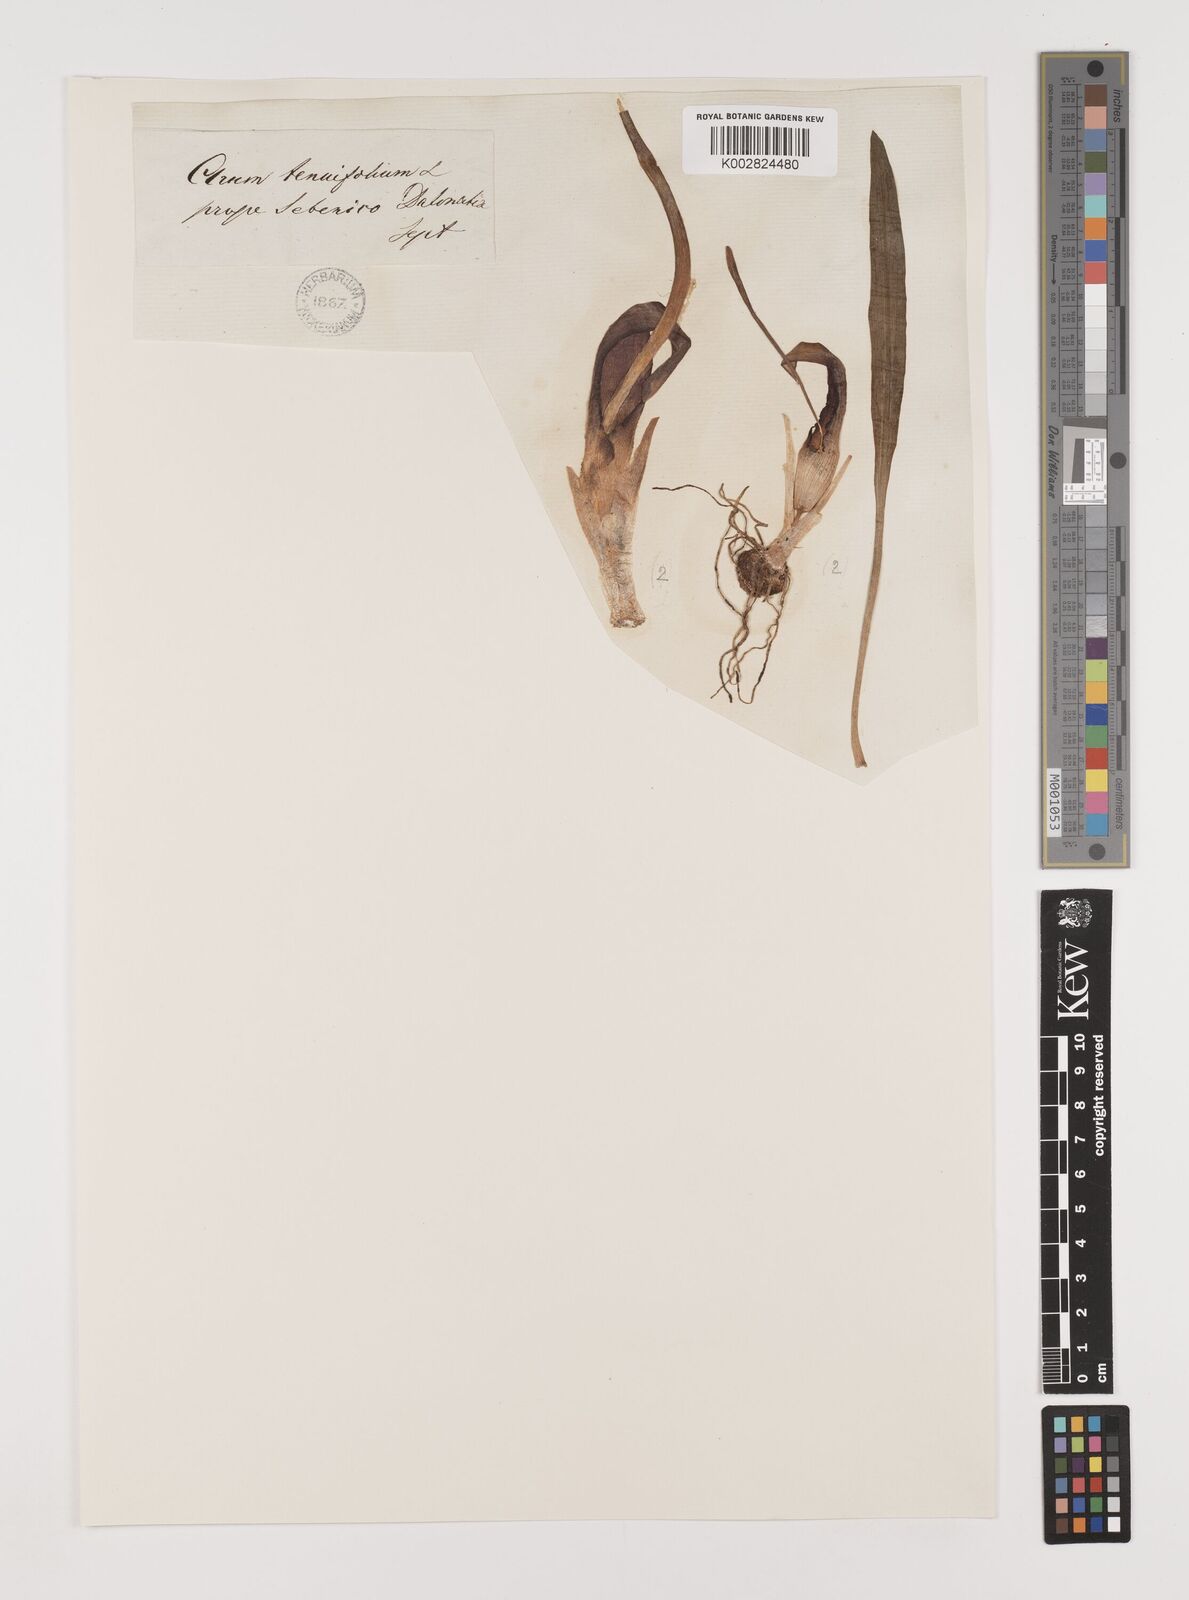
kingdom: Plantae
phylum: Tracheophyta
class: Liliopsida
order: Alismatales
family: Araceae
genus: Biarum
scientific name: Biarum tenuifolium
